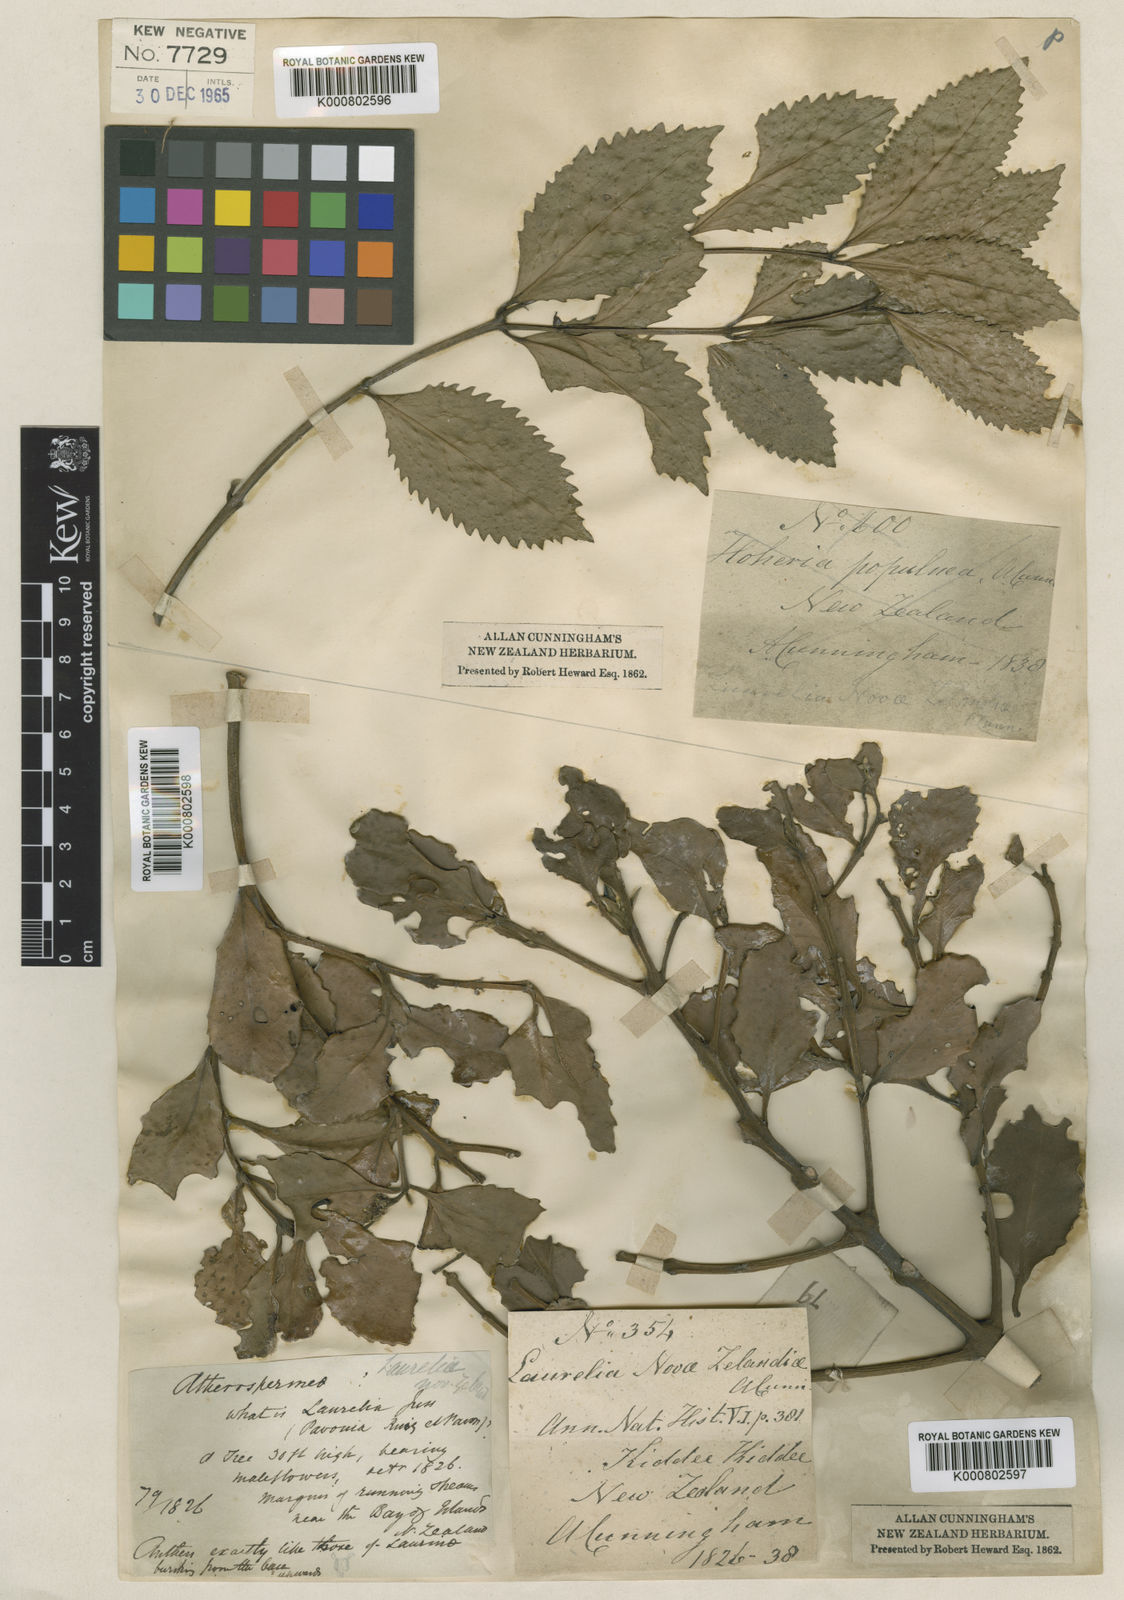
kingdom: Plantae
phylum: Tracheophyta
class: Magnoliopsida
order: Laurales
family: Atherospermataceae
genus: Laurelia
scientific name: Laurelia novae-zelandiae
